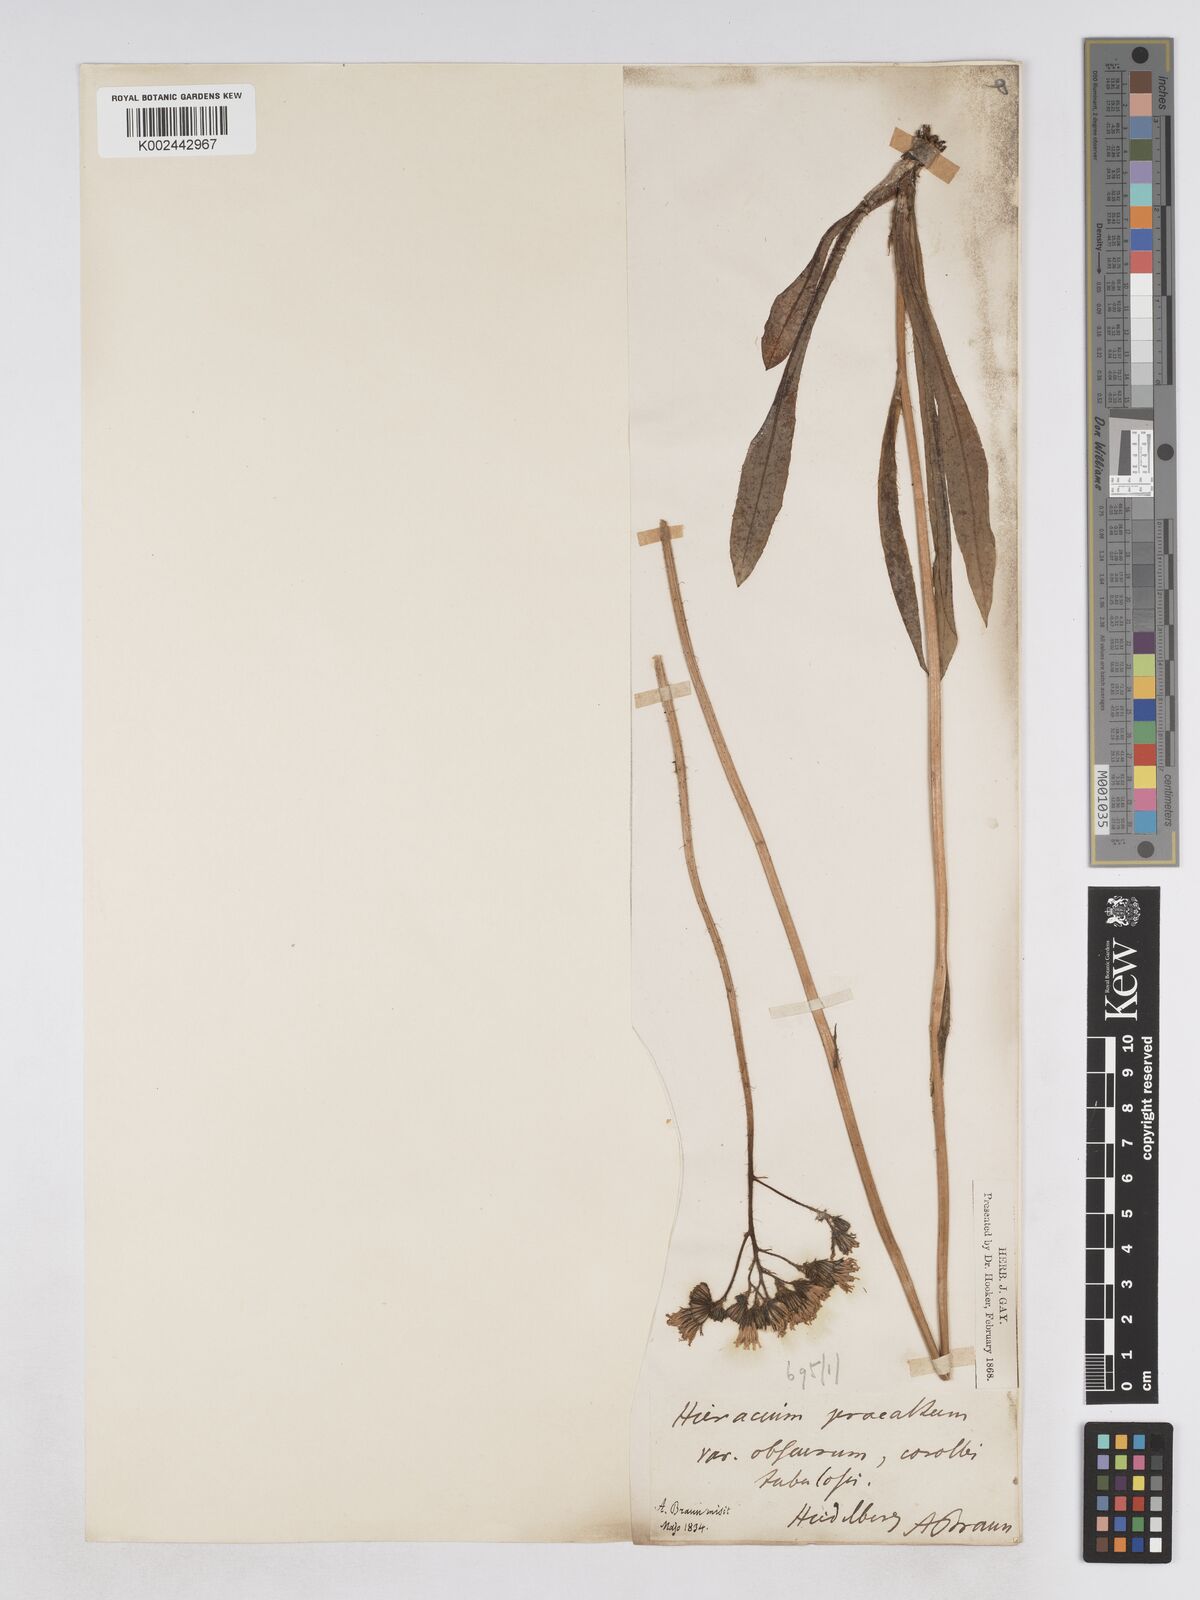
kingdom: Plantae
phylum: Tracheophyta
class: Magnoliopsida
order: Asterales
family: Asteraceae
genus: Pilosella
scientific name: Pilosella piloselloides
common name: Glaucous king-devil
